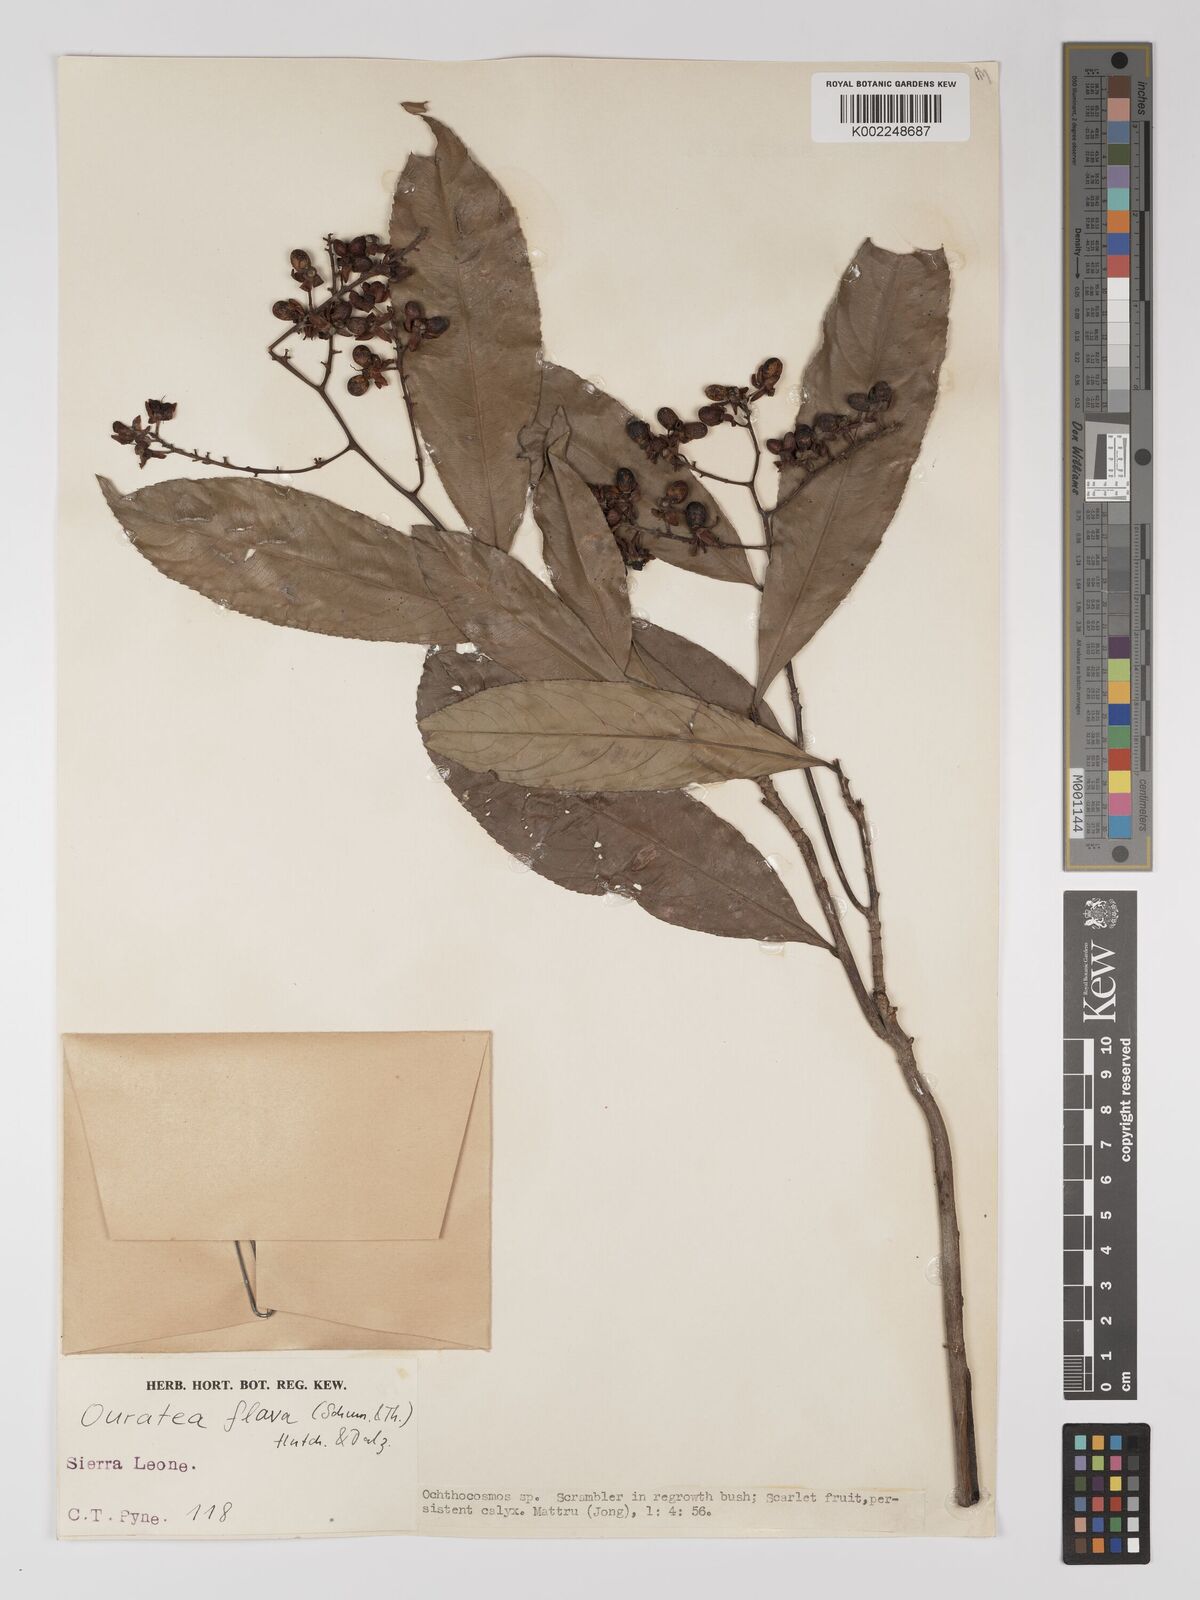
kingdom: Plantae
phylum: Tracheophyta
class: Magnoliopsida
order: Malpighiales
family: Ochnaceae
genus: Campylospermum
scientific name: Campylospermum flavum
